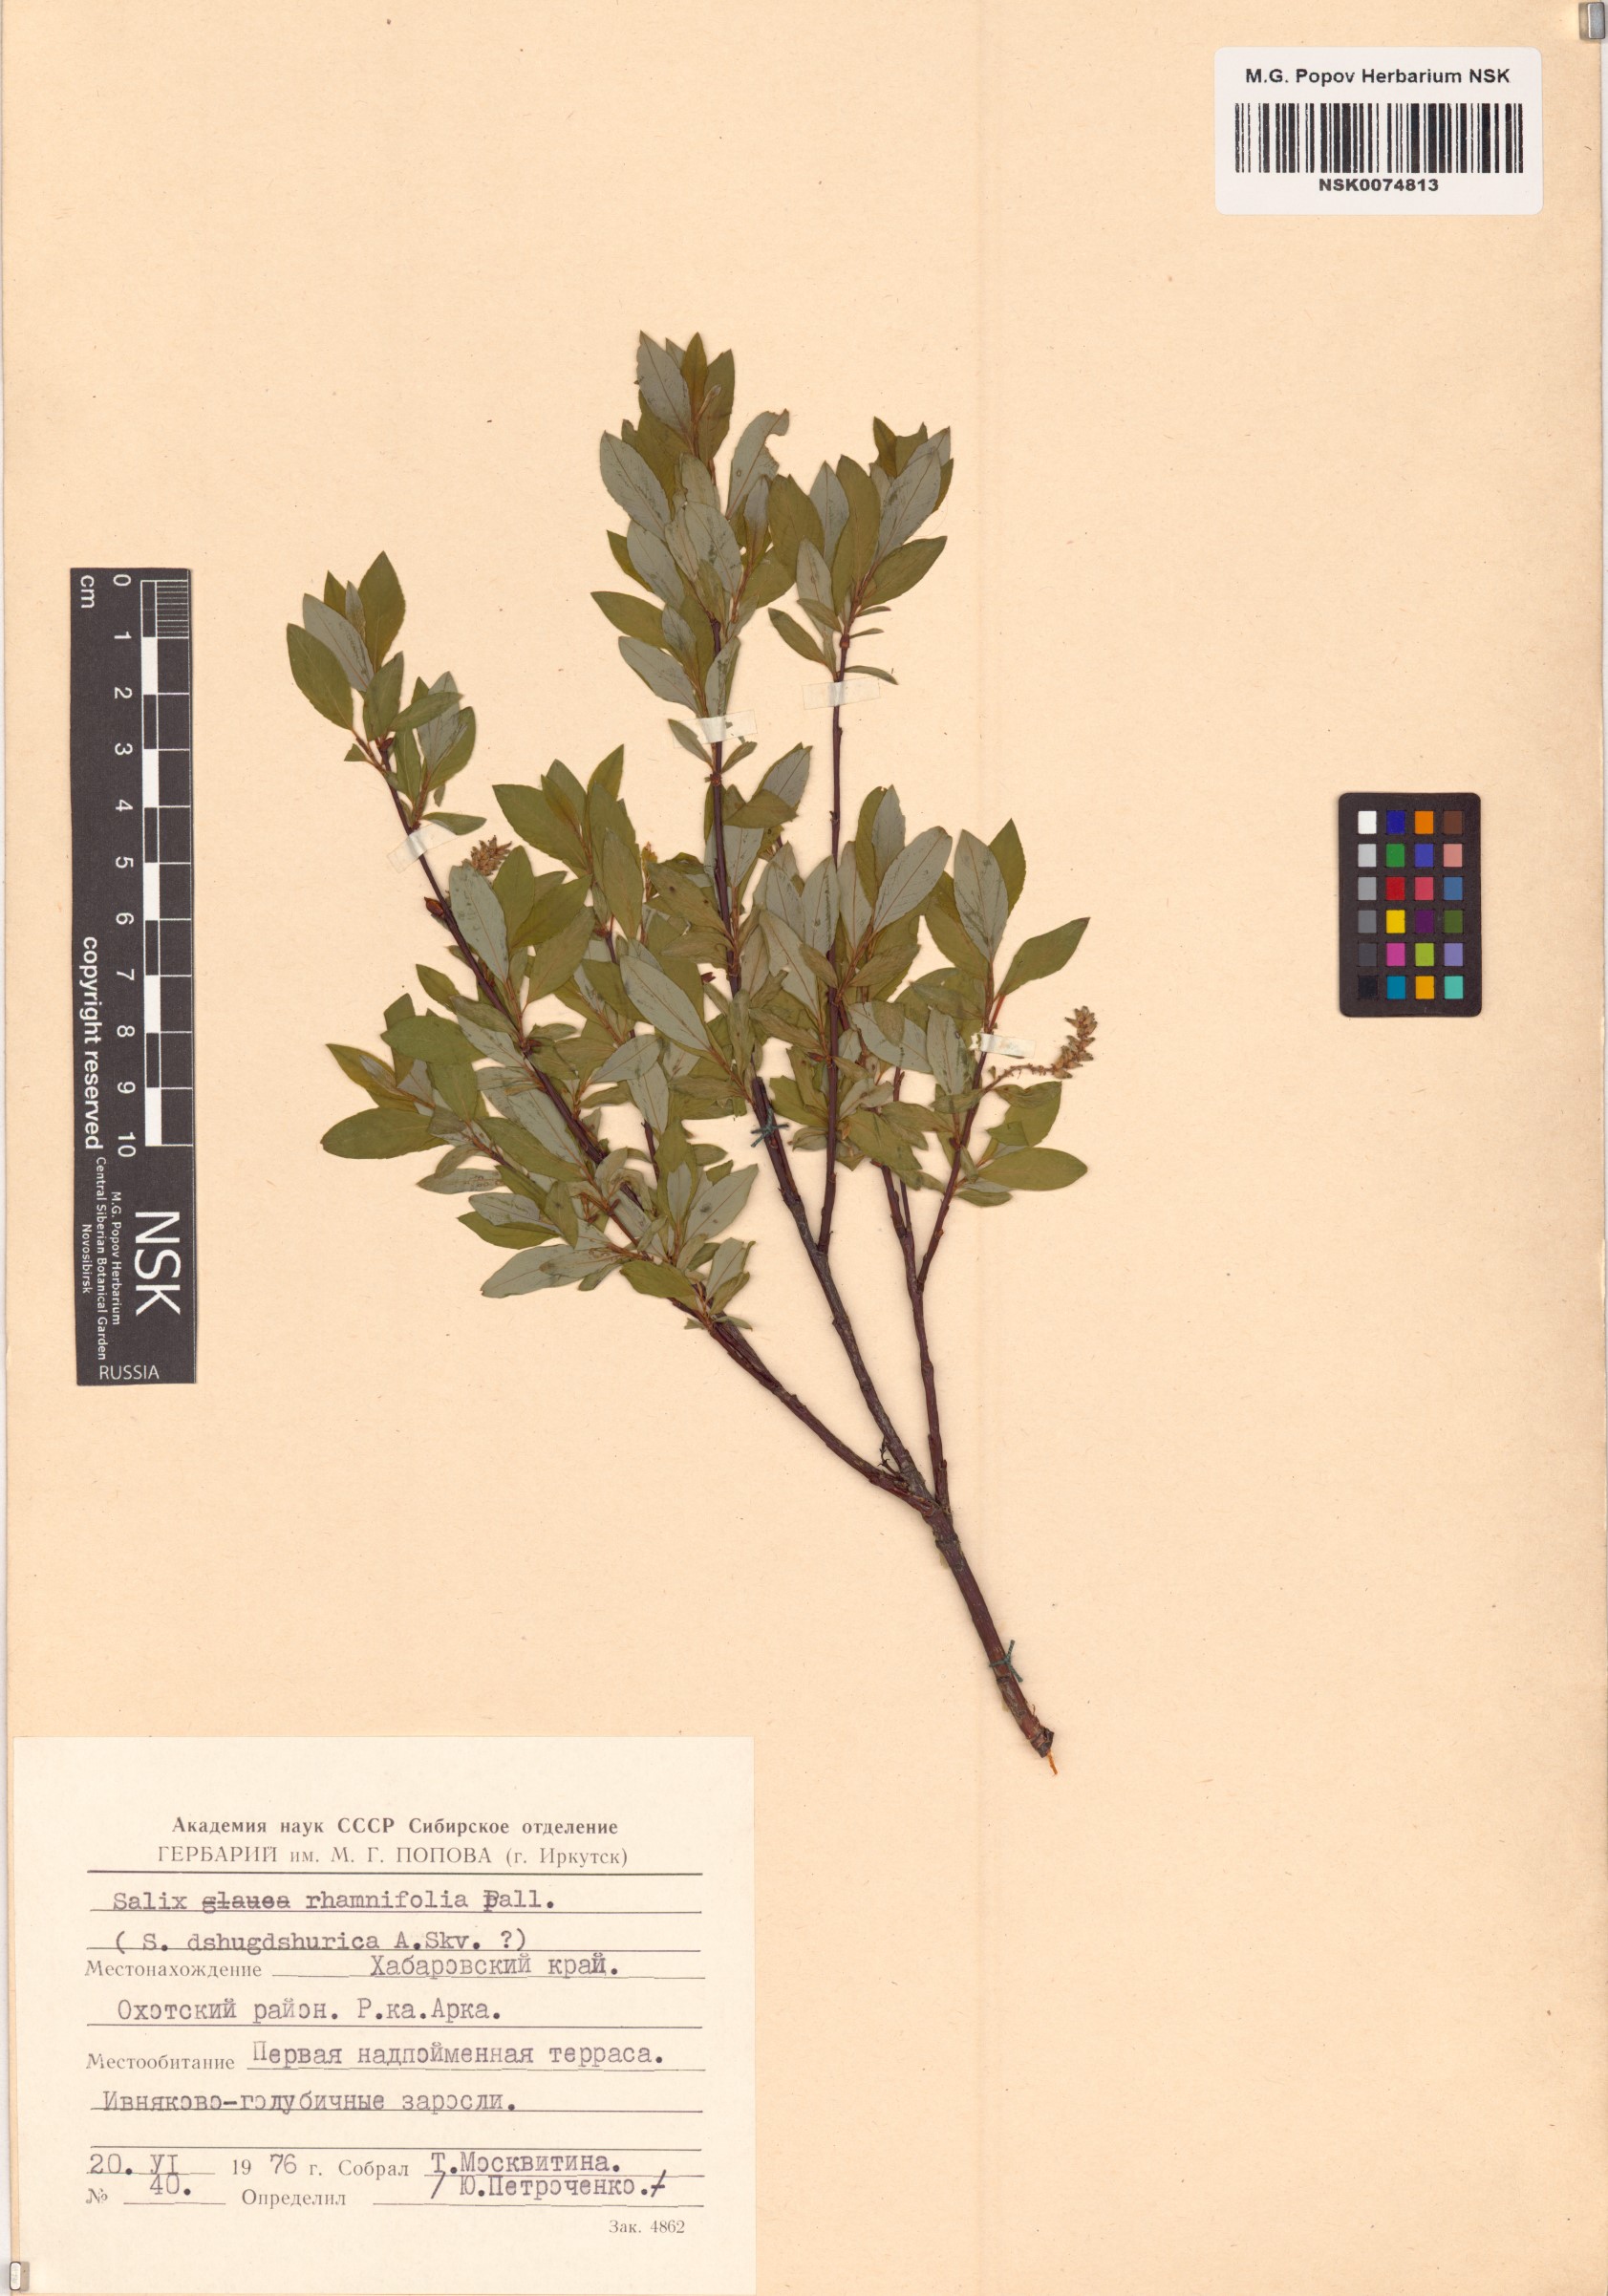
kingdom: Plantae
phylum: Tracheophyta
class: Magnoliopsida
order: Malpighiales
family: Salicaceae
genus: Salix
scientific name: Salix rhamnifolia
